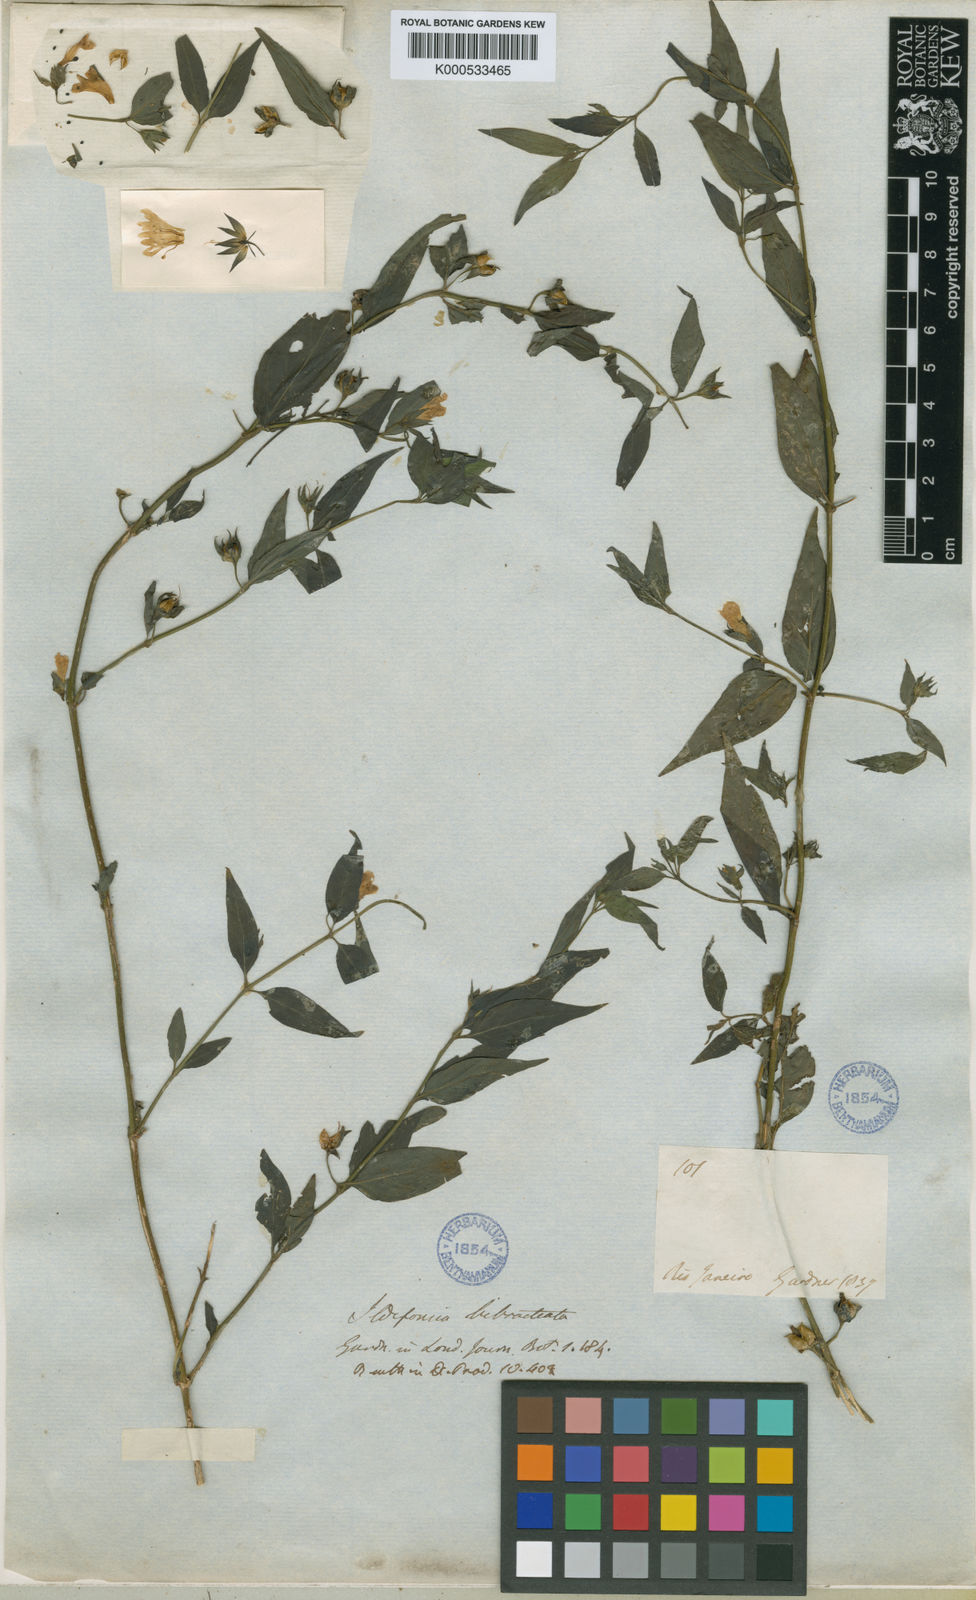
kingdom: Plantae
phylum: Tracheophyta
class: Magnoliopsida
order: Lamiales
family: Plantaginaceae
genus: Bacopa
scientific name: Bacopa
